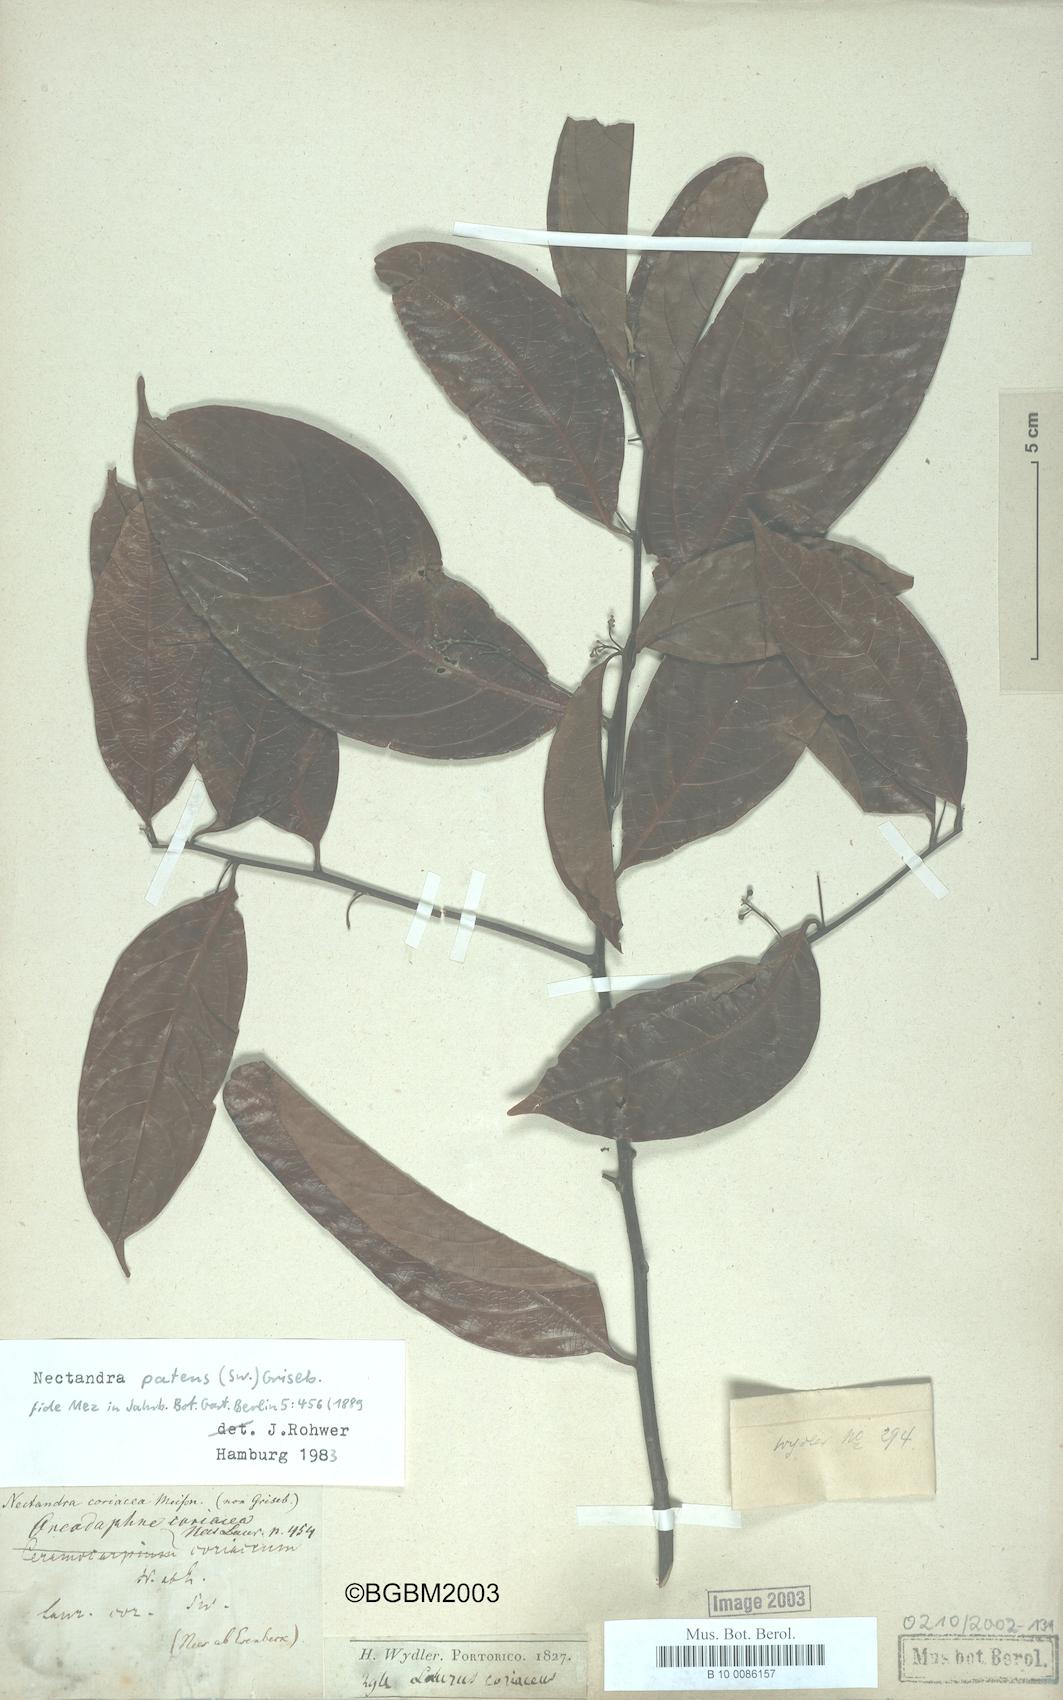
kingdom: Plantae
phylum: Tracheophyta
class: Magnoliopsida
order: Laurales
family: Lauraceae
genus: Damburneya
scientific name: Damburneya patens
